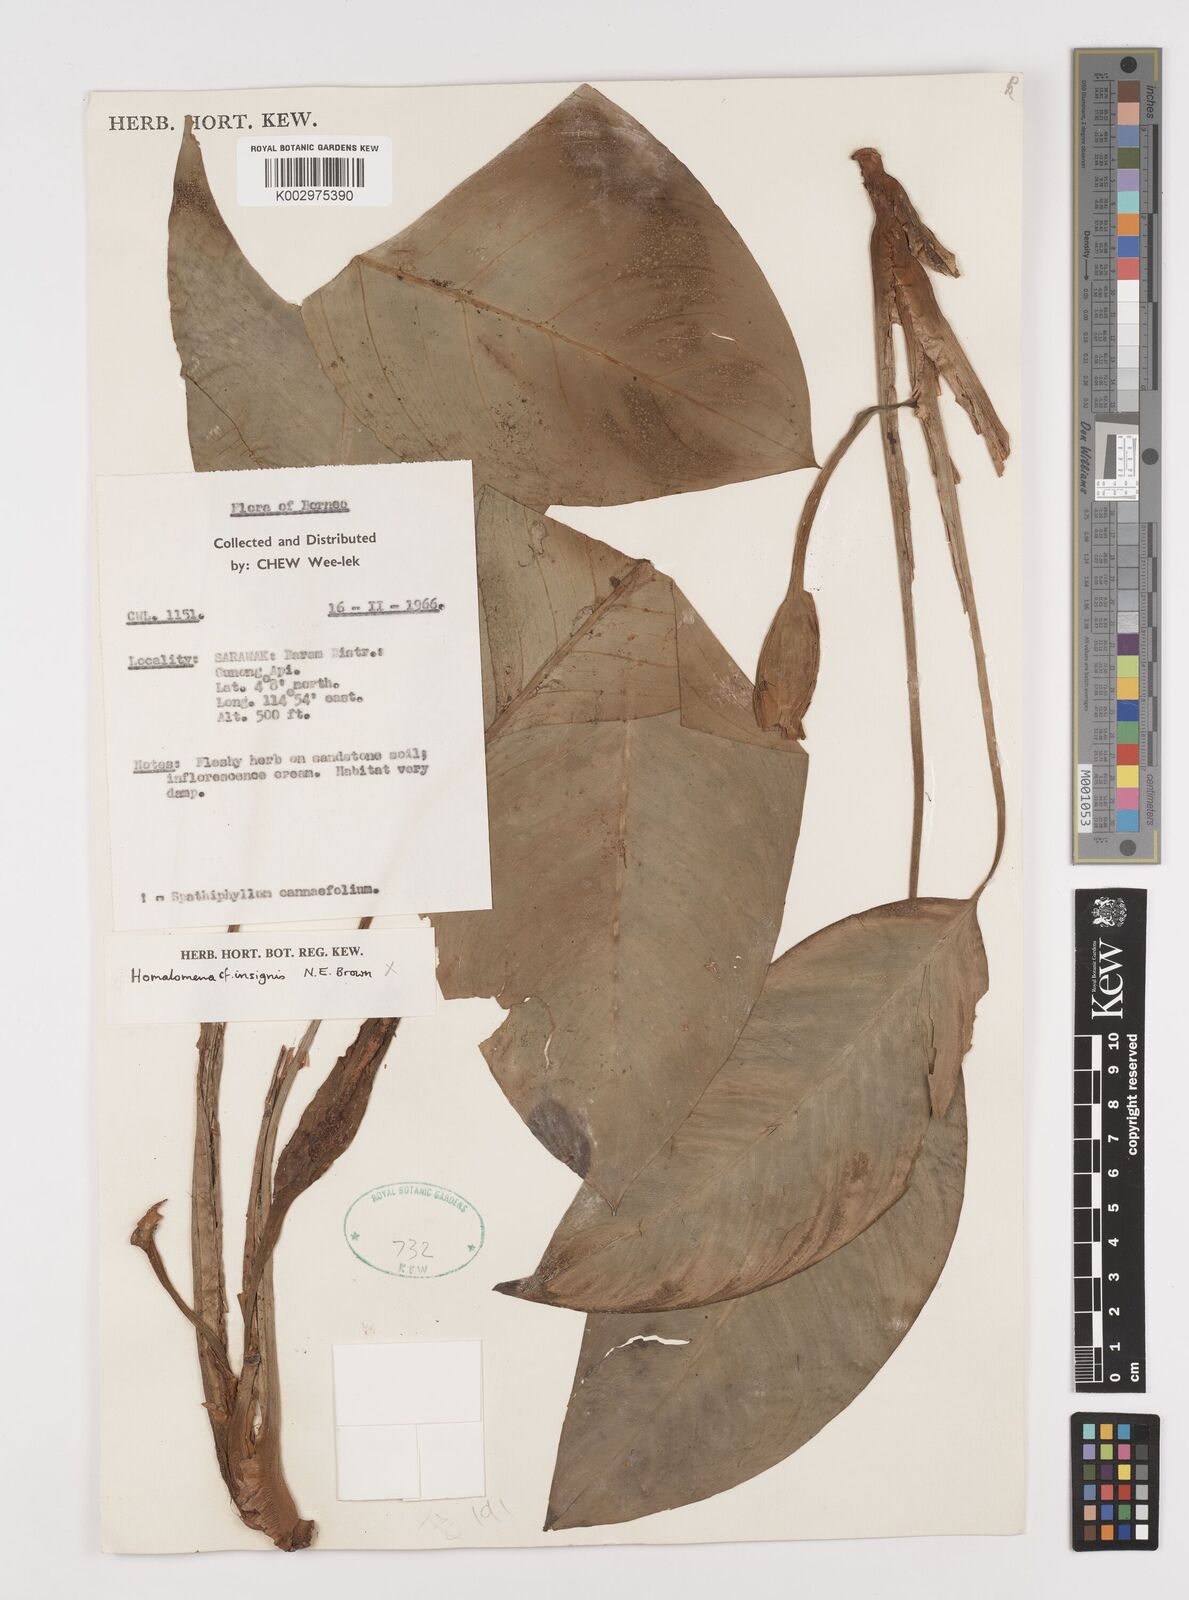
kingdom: Plantae
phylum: Tracheophyta
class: Liliopsida
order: Alismatales
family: Araceae
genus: Homalomena
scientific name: Homalomena insignis
